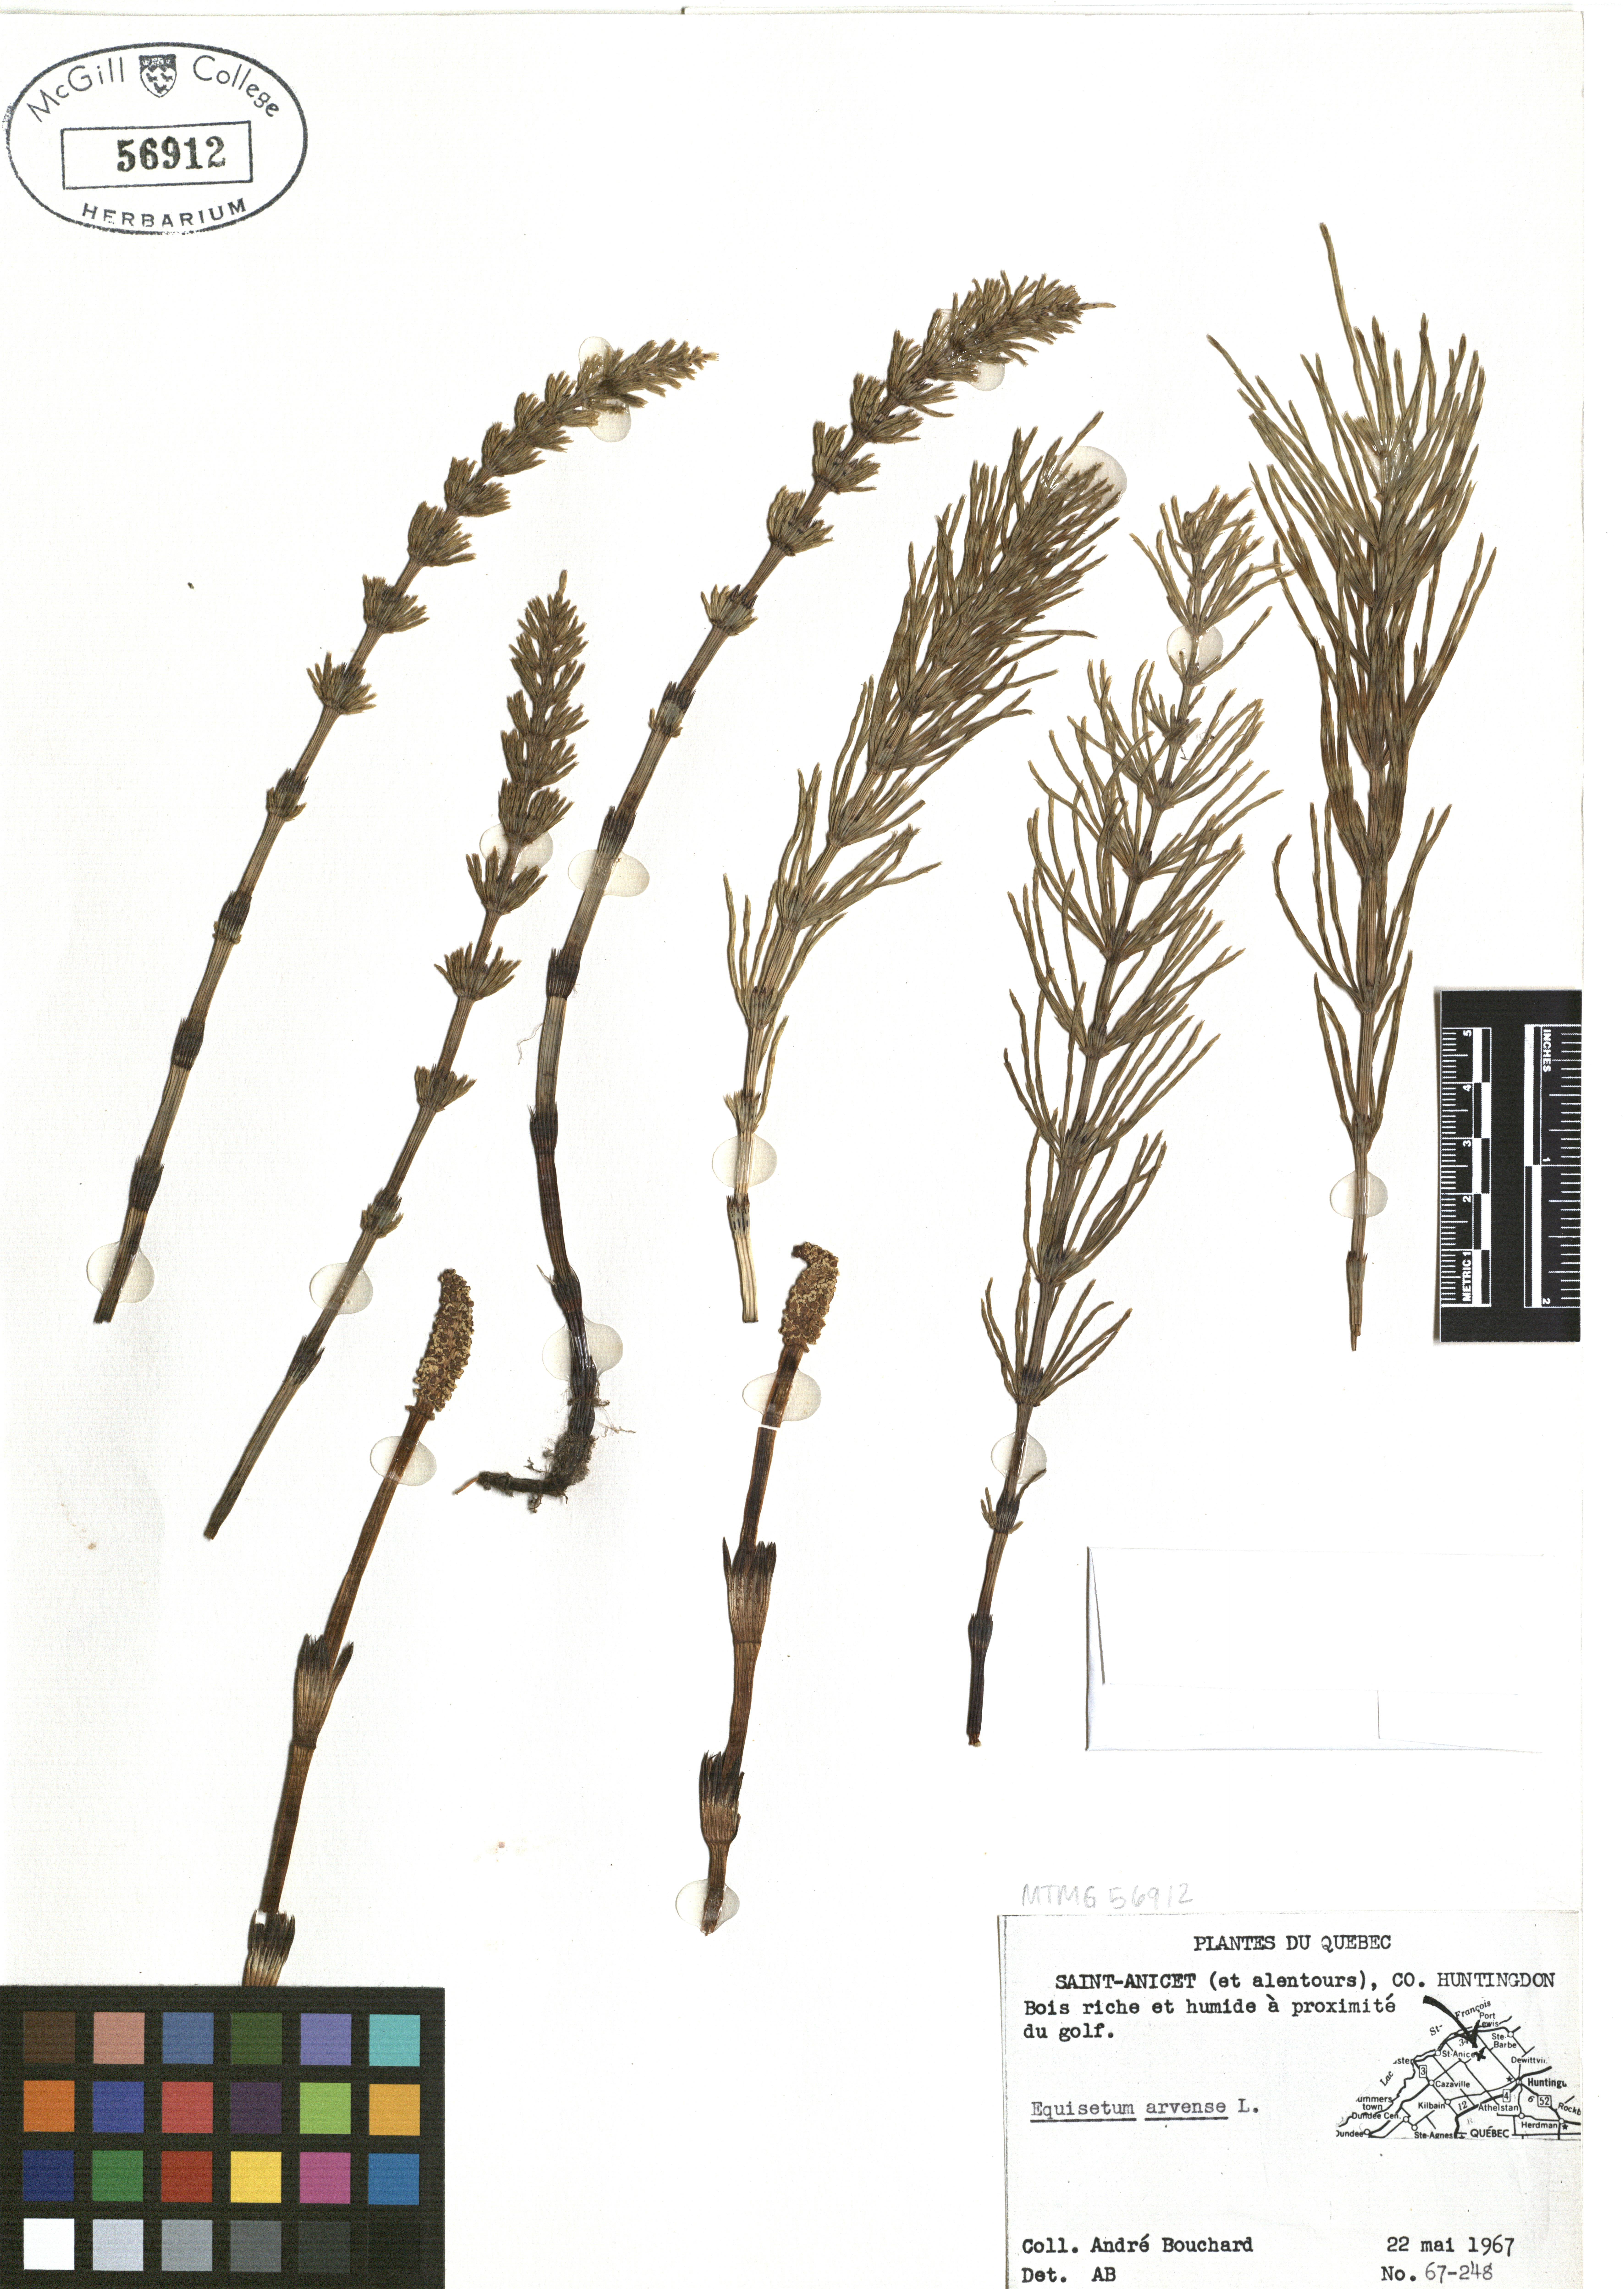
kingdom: Plantae
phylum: Tracheophyta
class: Polypodiopsida
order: Equisetales
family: Equisetaceae
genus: Equisetum
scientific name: Equisetum arvense
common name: Field horsetail
